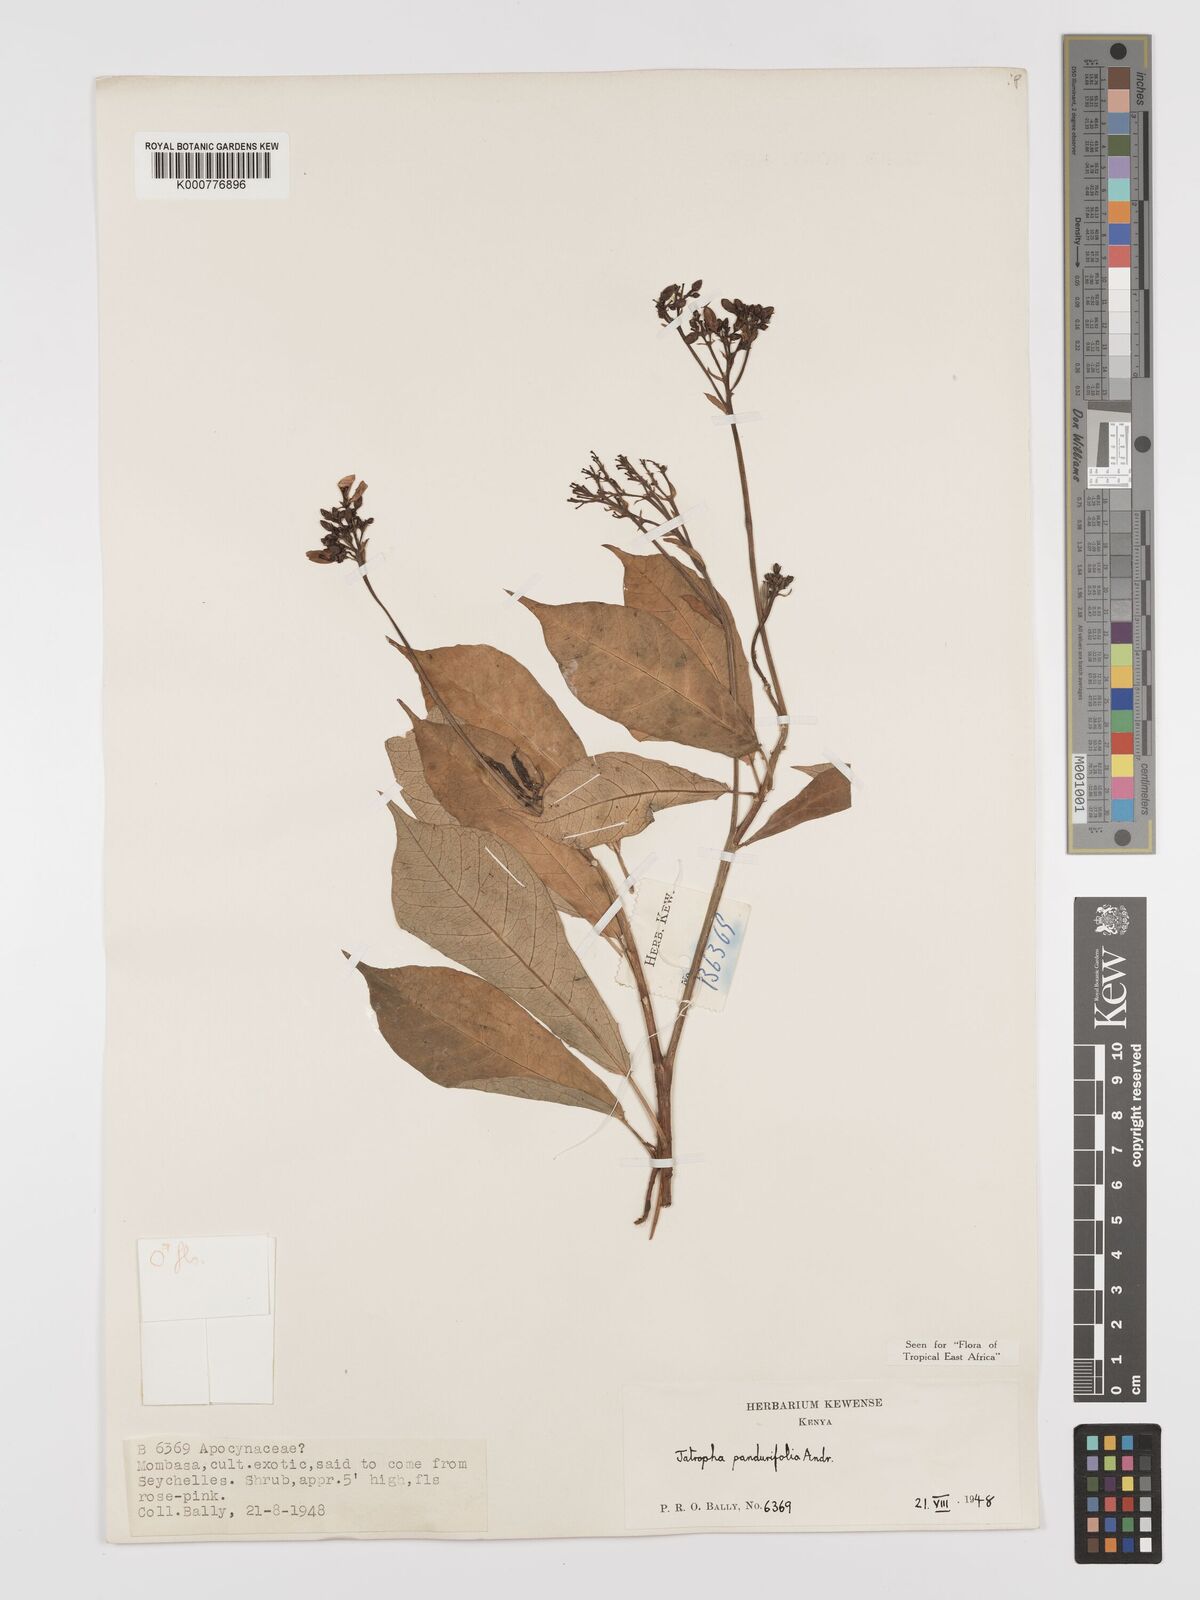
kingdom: Plantae
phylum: Tracheophyta
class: Magnoliopsida
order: Malpighiales
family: Euphorbiaceae
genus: Jatropha
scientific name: Jatropha integerrima
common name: Peregrina
